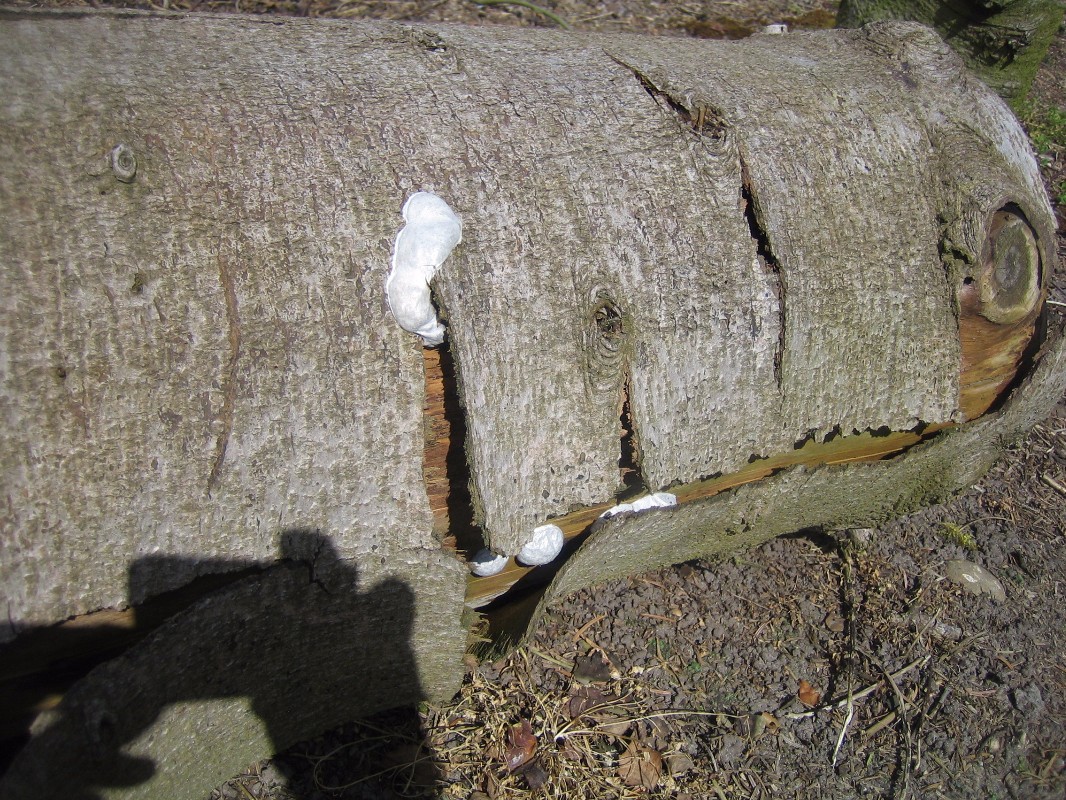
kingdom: Protozoa
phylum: Mycetozoa
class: Myxomycetes
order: Cribrariales
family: Tubiferaceae
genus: Reticularia
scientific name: Reticularia lycoperdon
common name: skinnende støvpude
